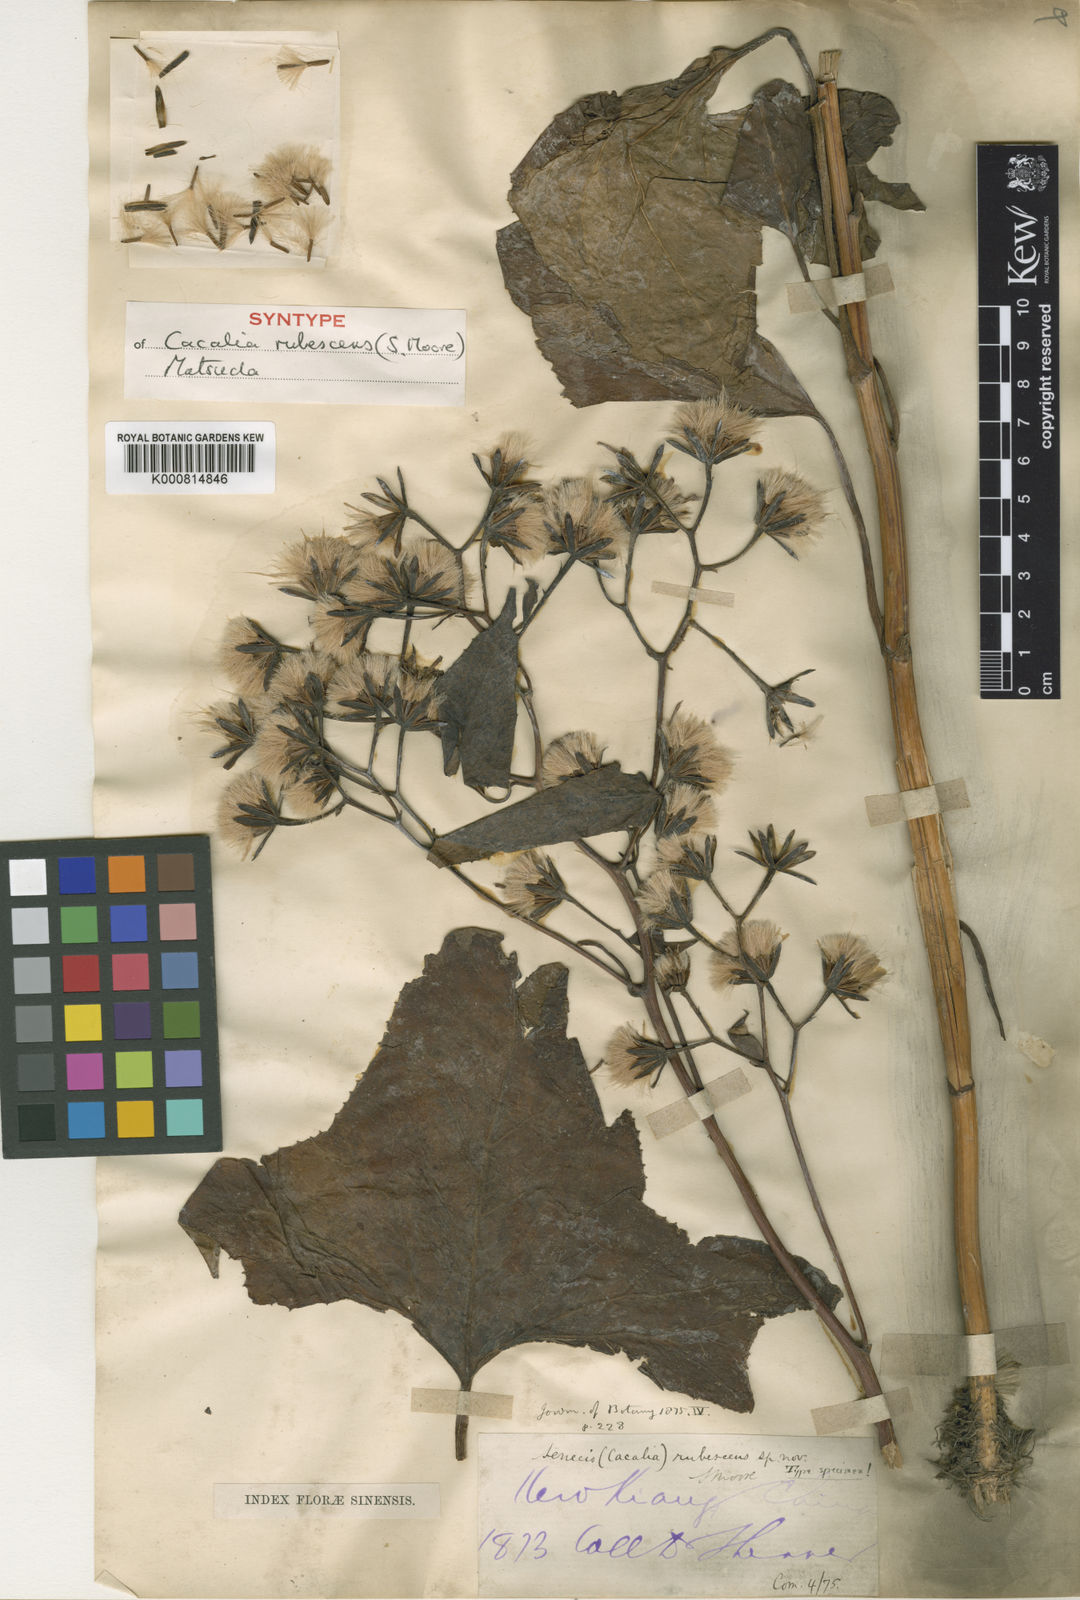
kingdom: Plantae
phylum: Tracheophyta
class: Magnoliopsida
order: Asterales
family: Asteraceae
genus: Parasenecio
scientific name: Parasenecio rubescens
